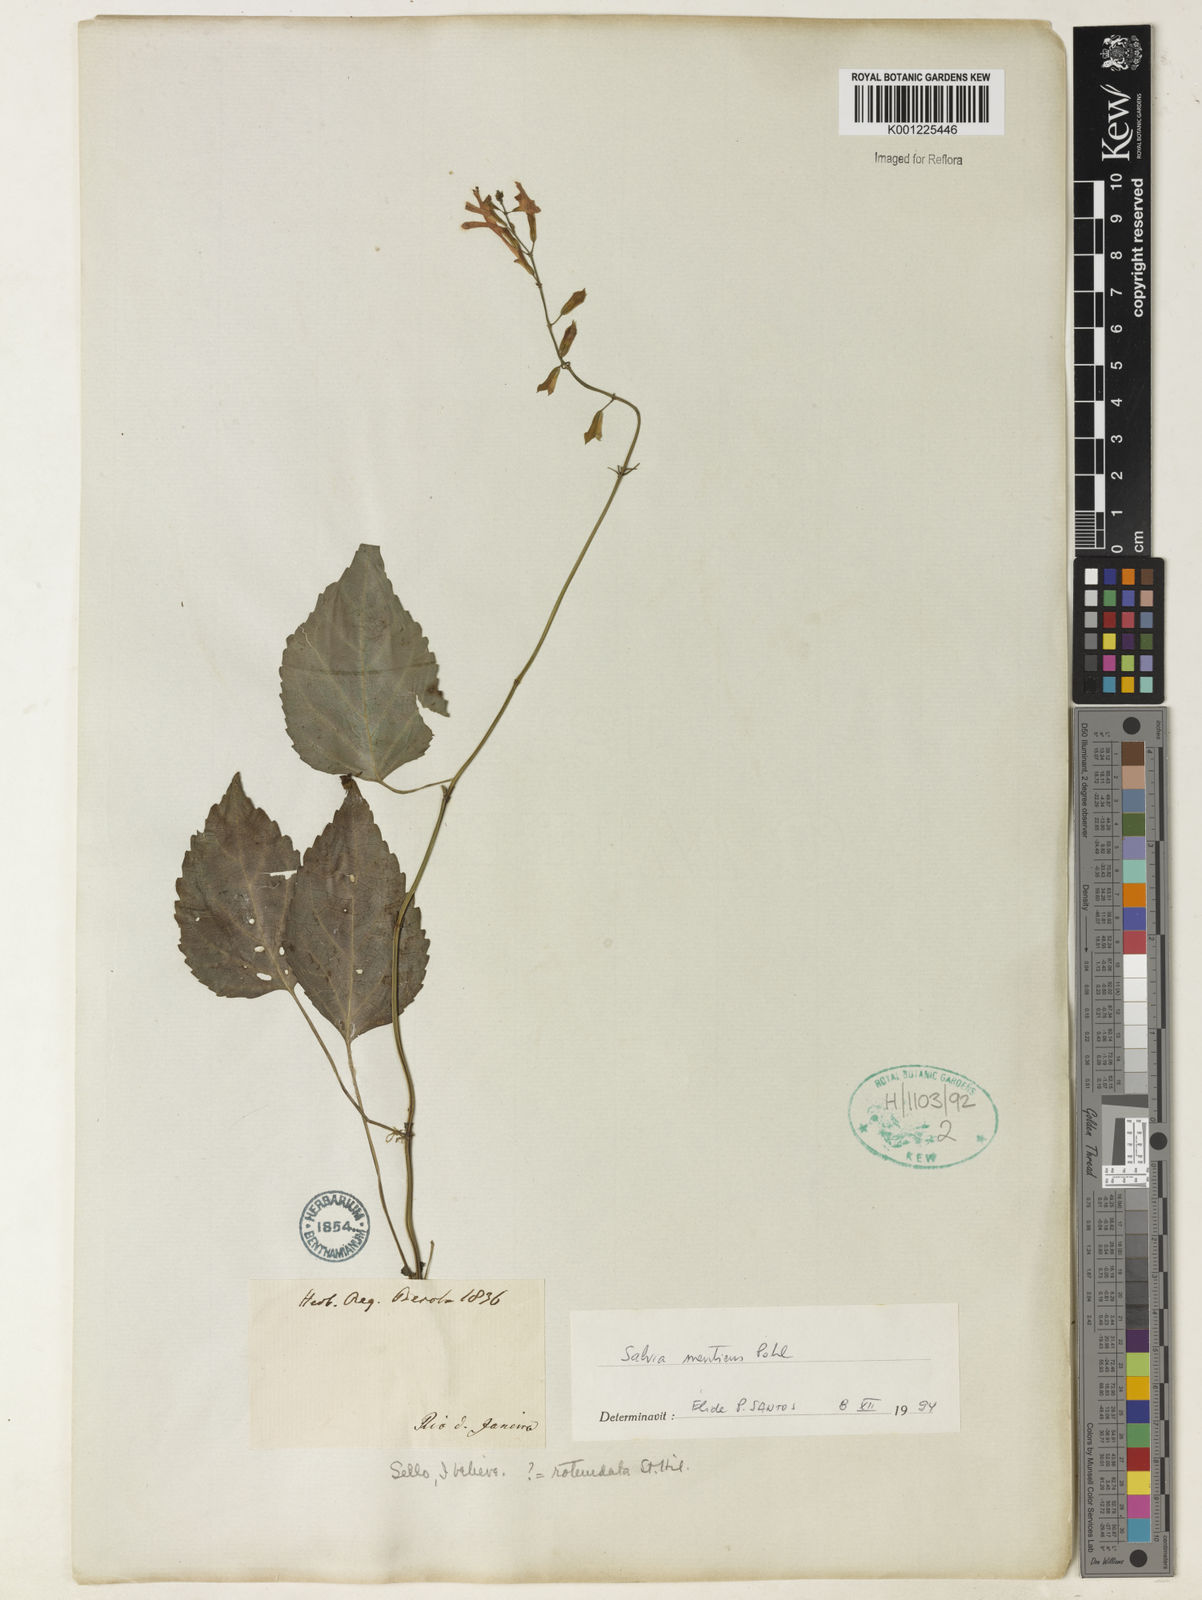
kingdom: Plantae
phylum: Tracheophyta
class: Magnoliopsida
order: Lamiales
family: Lamiaceae
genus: Salvia
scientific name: Salvia mentiens
